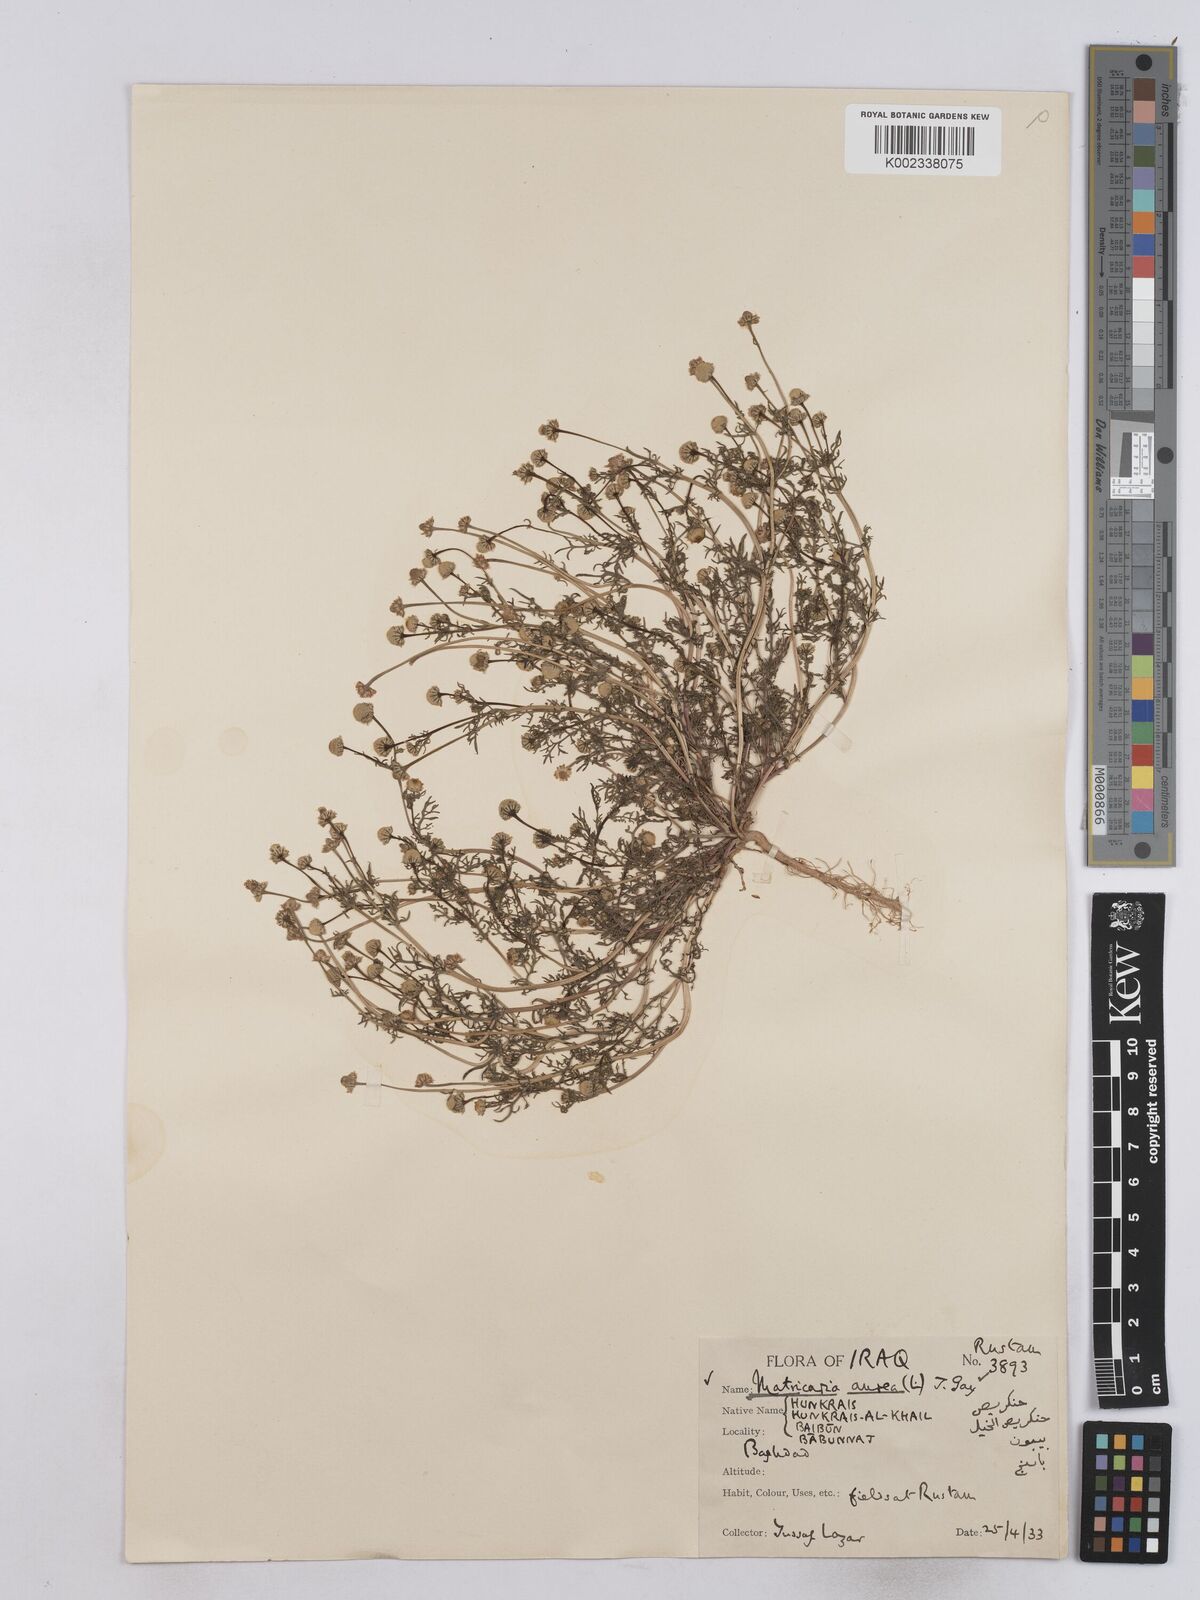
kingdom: Plantae
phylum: Tracheophyta
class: Magnoliopsida
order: Asterales
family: Asteraceae
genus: Matricaria
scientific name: Matricaria aurea
